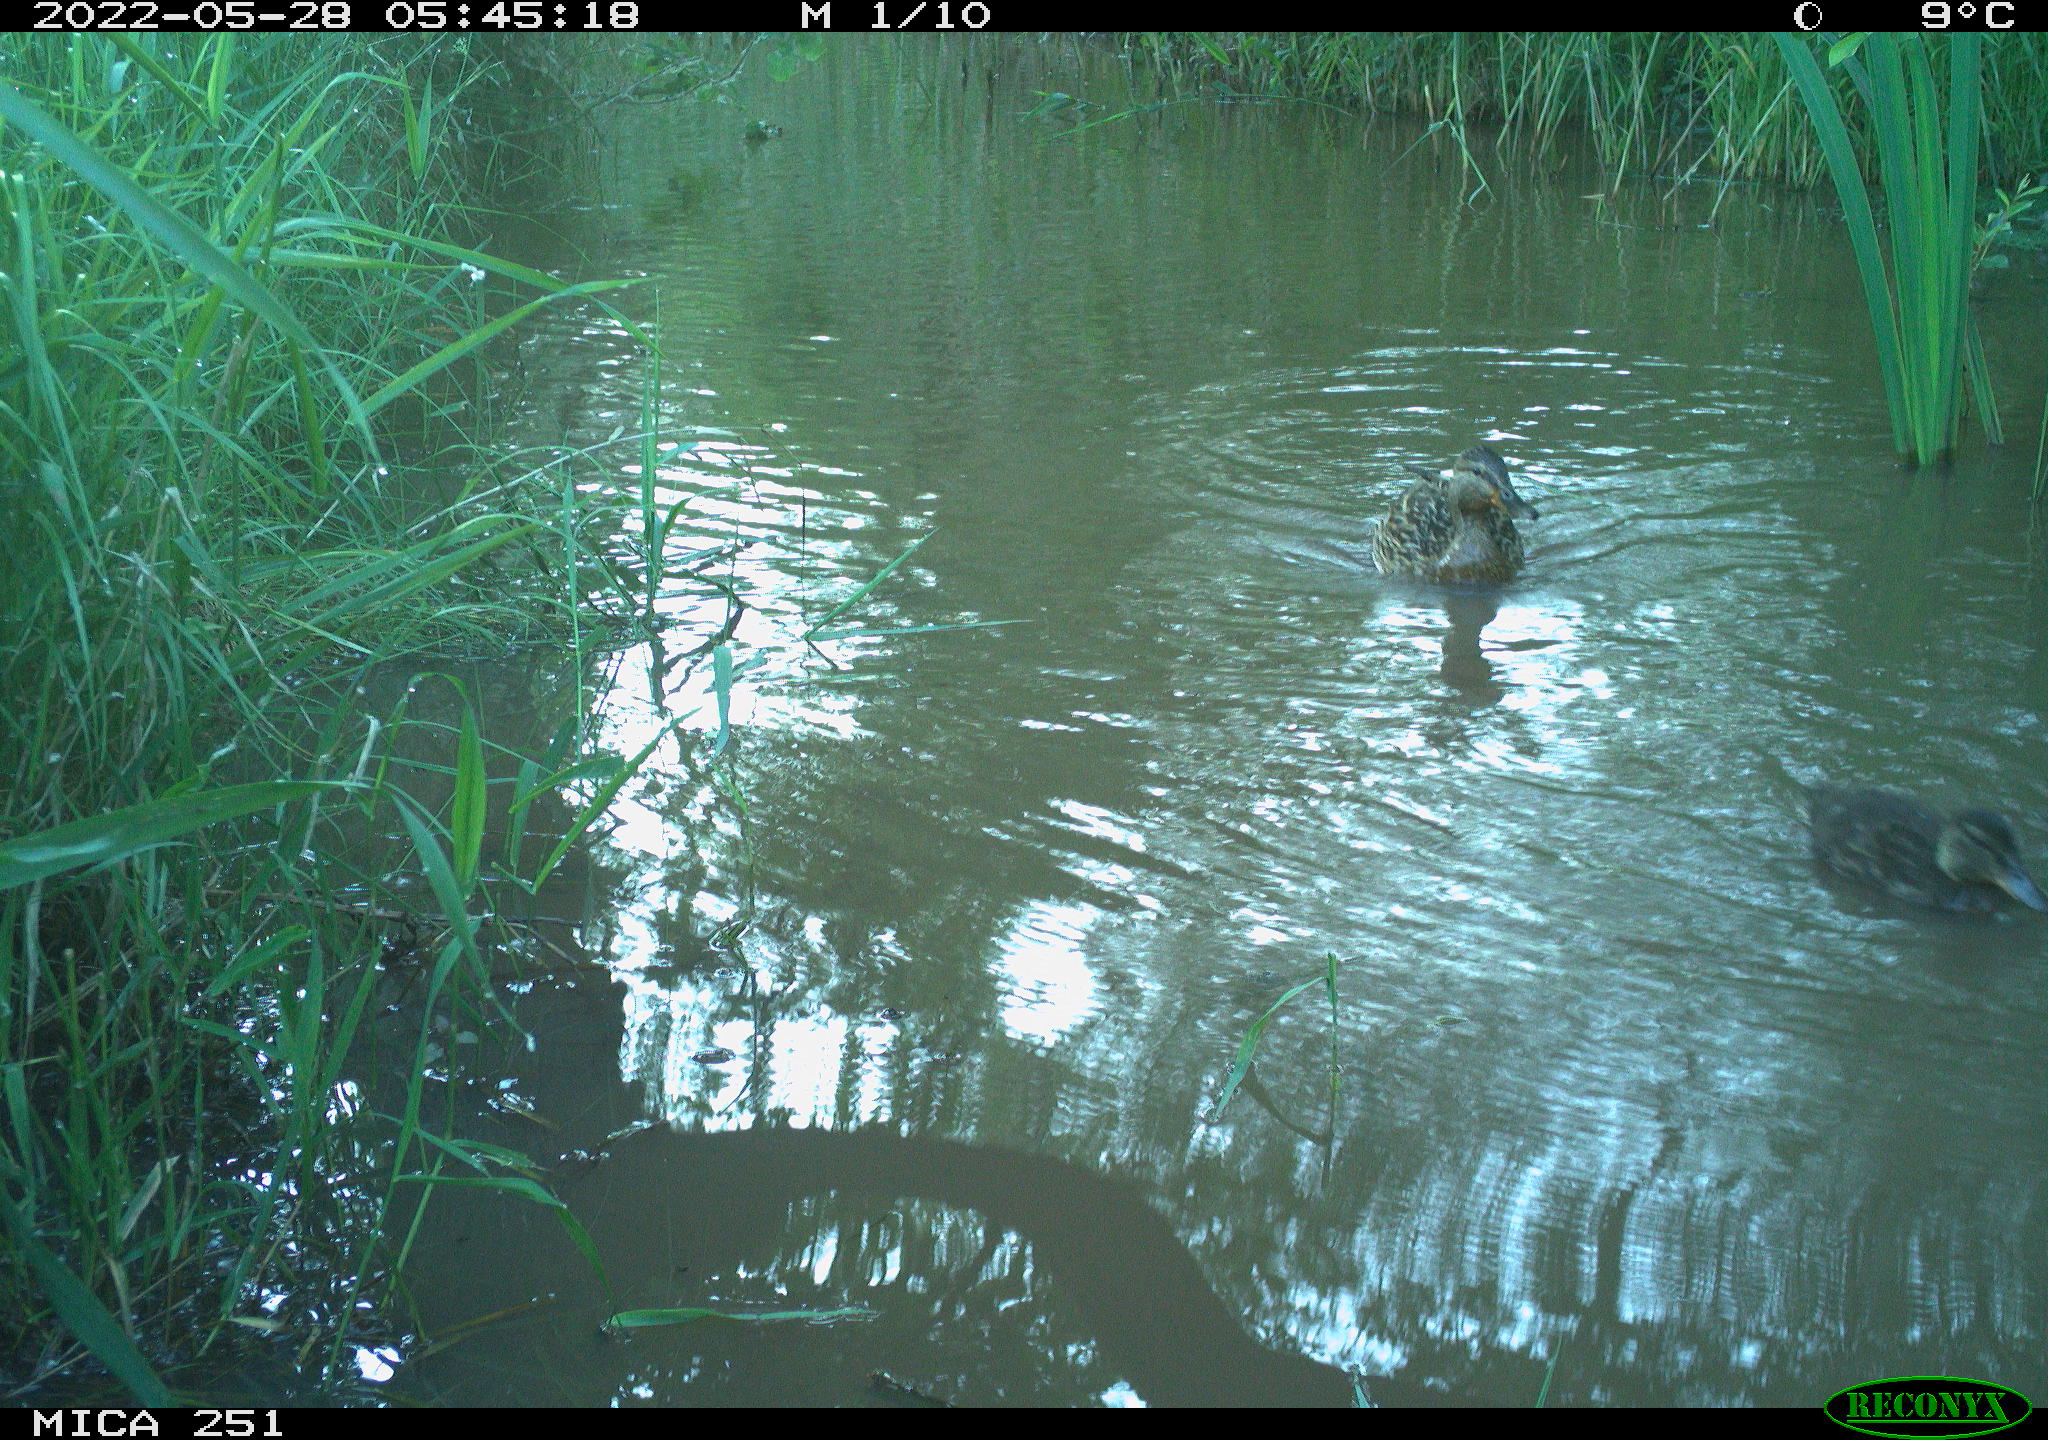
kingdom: Animalia
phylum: Chordata
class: Aves
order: Anseriformes
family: Anatidae
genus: Anas
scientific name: Anas platyrhynchos
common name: Mallard
